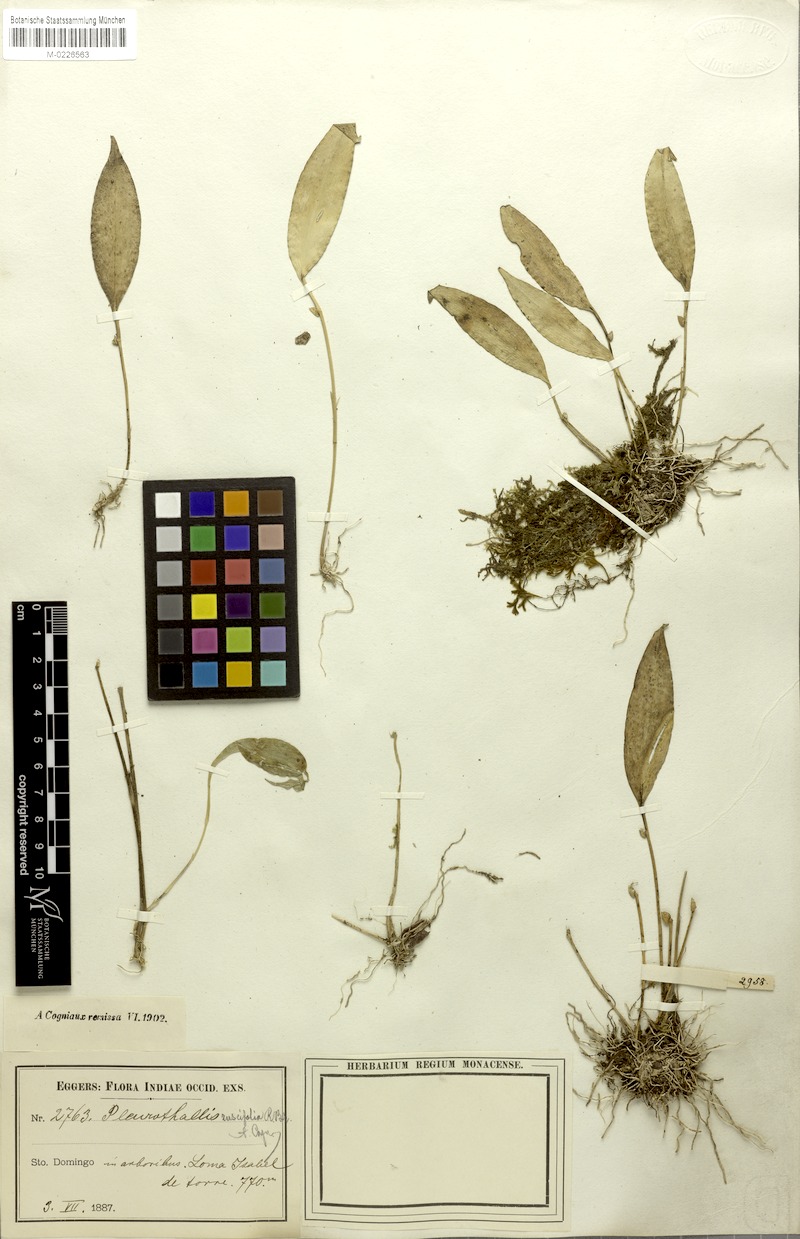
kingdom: Plantae
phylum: Tracheophyta
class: Liliopsida
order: Asparagales
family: Orchidaceae
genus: Pleurothallis
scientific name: Pleurothallis ruscifolia
